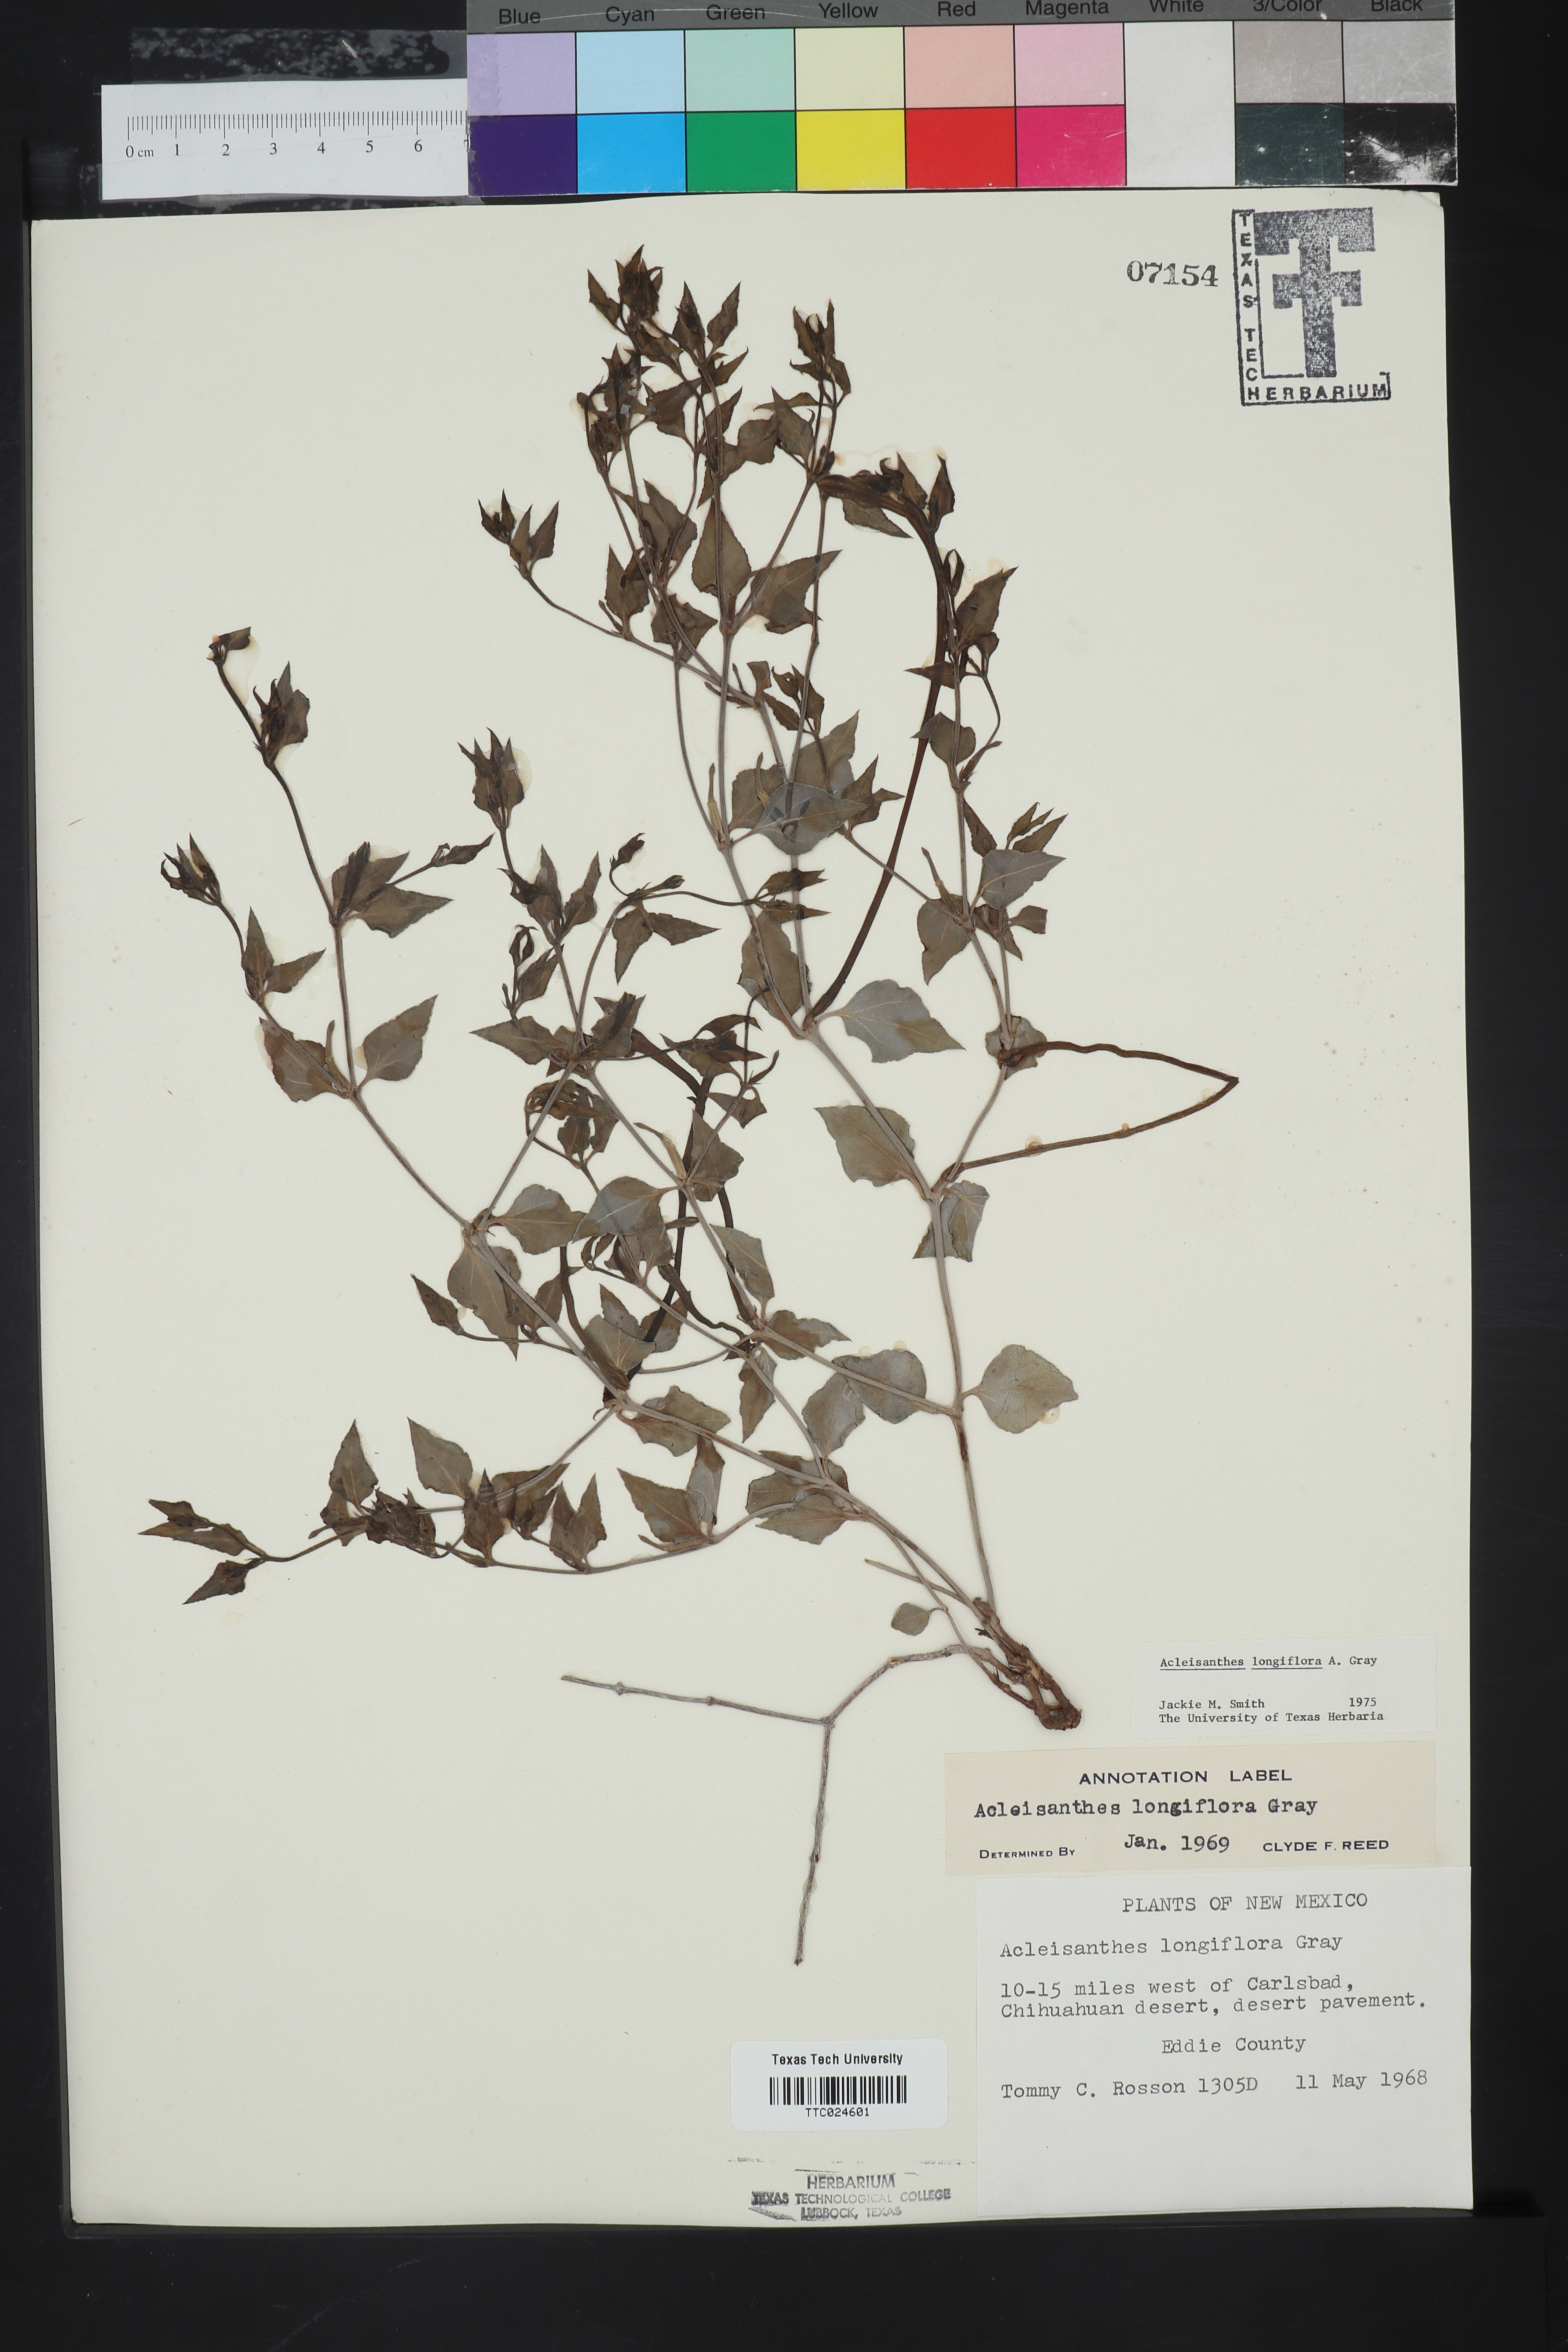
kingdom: Plantae
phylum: Tracheophyta
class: Magnoliopsida
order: Caryophyllales
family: Nyctaginaceae
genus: Acleisanthes
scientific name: Acleisanthes longiflora
